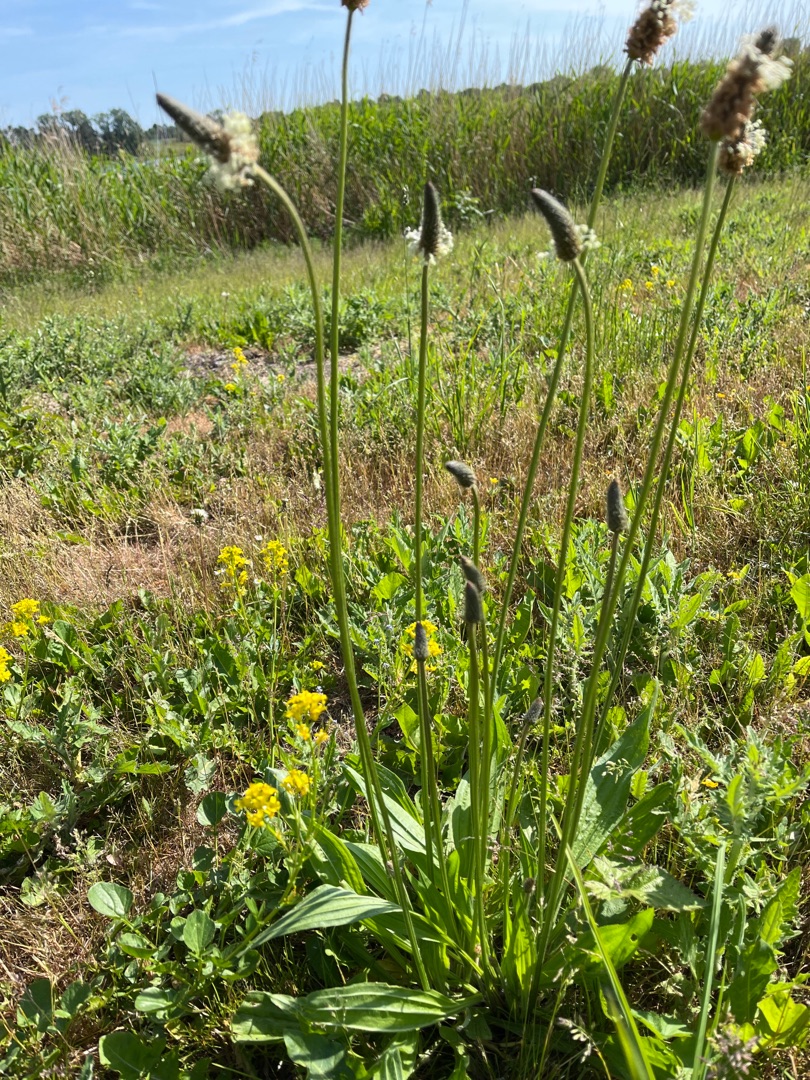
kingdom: Plantae
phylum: Tracheophyta
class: Magnoliopsida
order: Lamiales
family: Plantaginaceae
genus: Plantago
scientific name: Plantago lanceolata
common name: Lancet-vejbred
